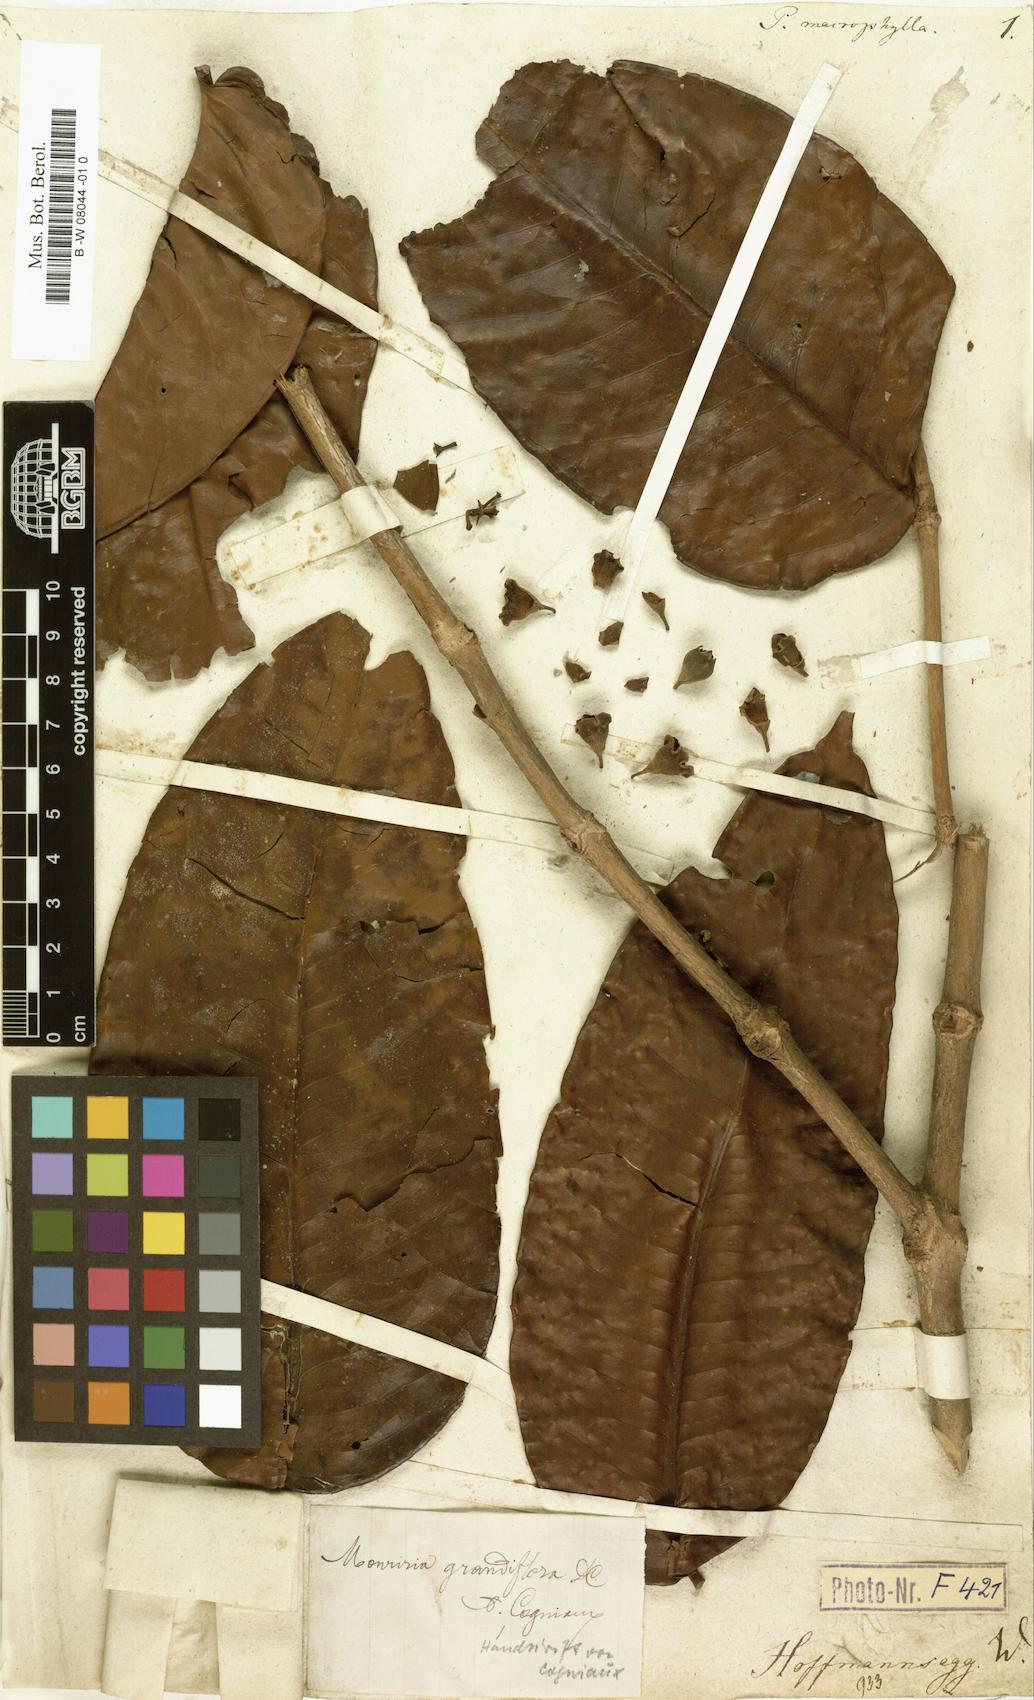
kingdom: Plantae
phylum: Tracheophyta
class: Magnoliopsida
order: Myrtales
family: Melastomataceae
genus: Mouriri
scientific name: Mouriri
